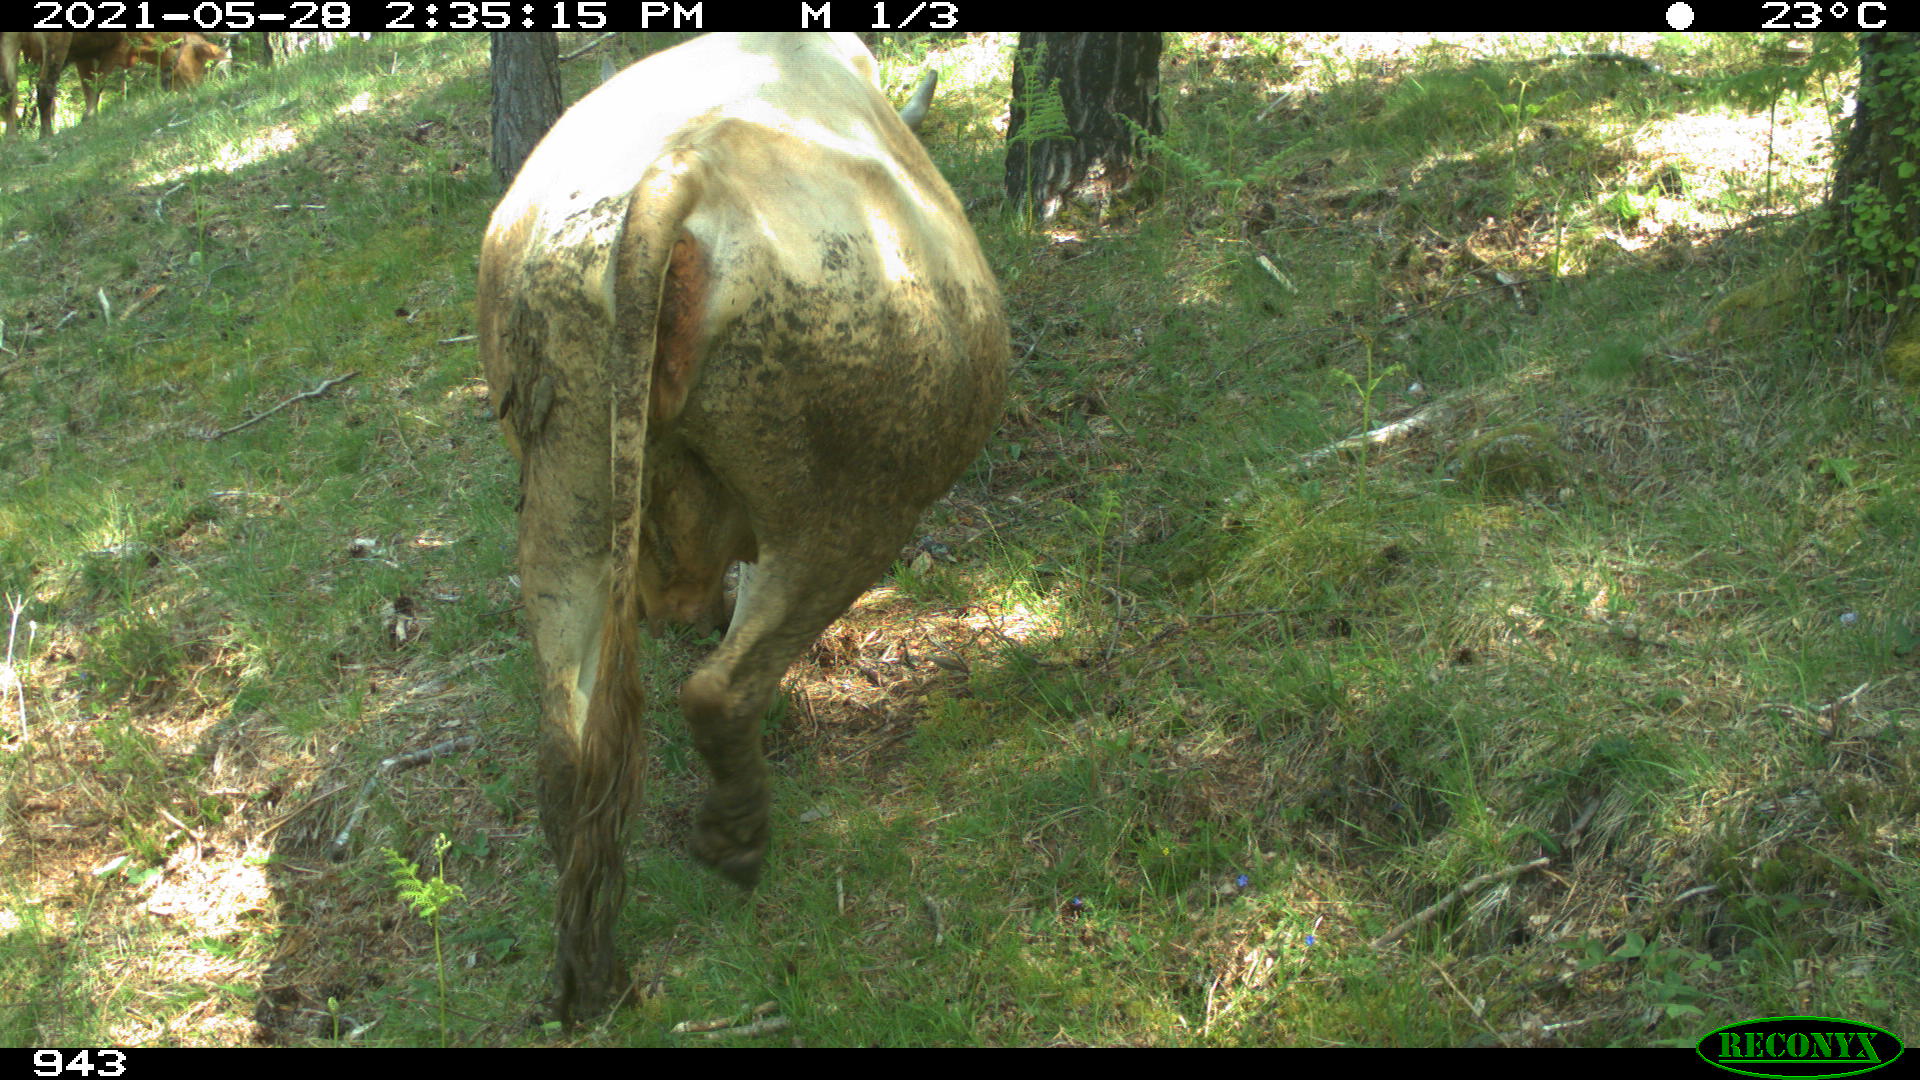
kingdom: Animalia
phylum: Chordata
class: Mammalia
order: Artiodactyla
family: Bovidae
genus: Bos
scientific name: Bos taurus
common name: Domesticated cattle
